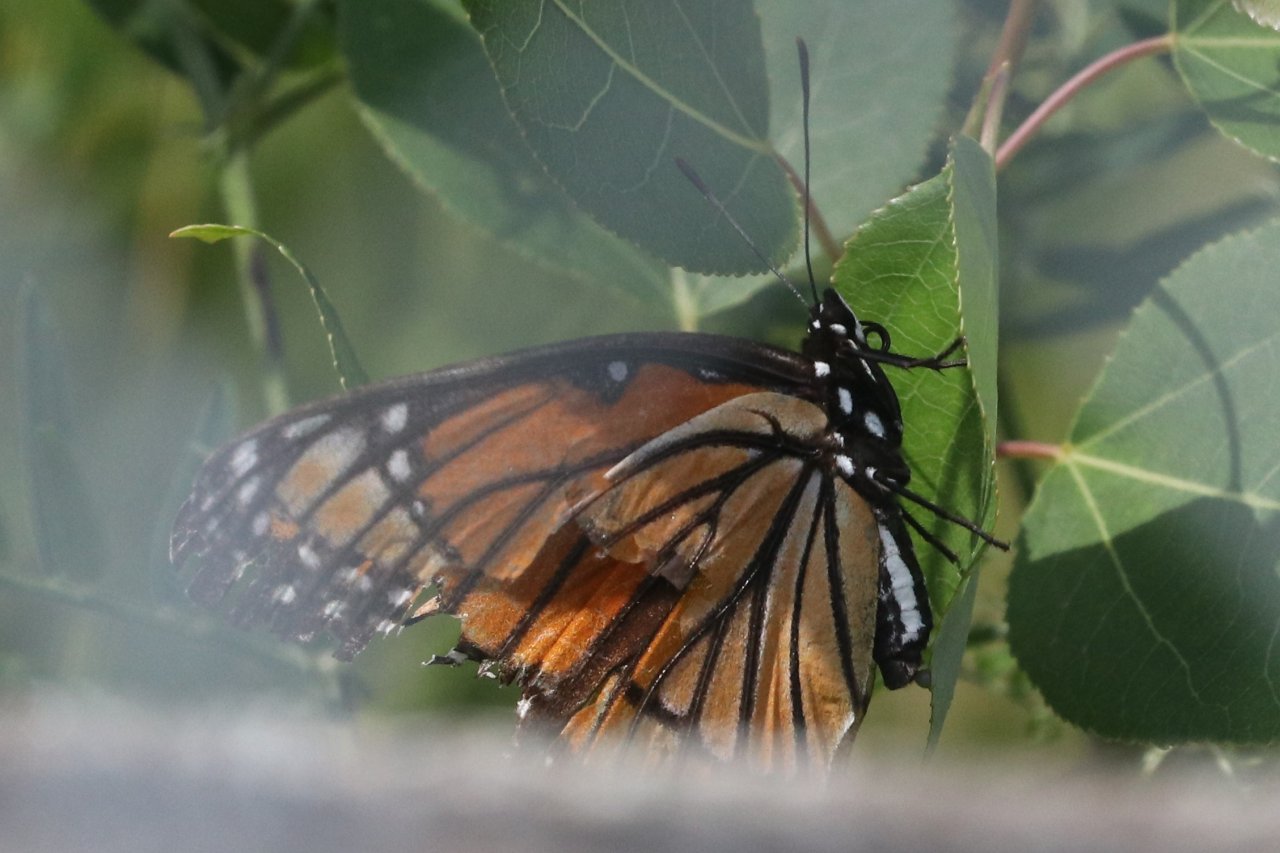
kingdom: Animalia
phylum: Arthropoda
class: Insecta
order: Lepidoptera
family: Nymphalidae
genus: Danaus
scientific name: Danaus plexippus
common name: Monarch
